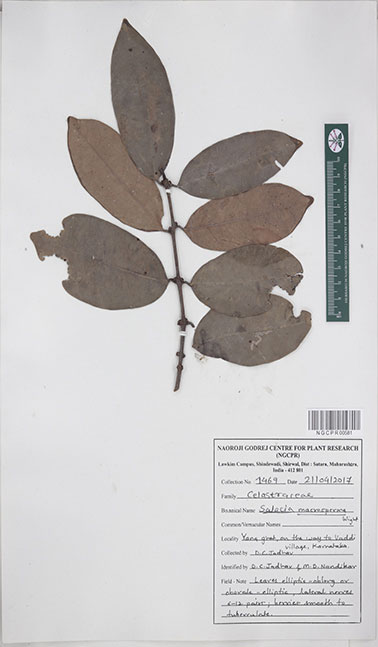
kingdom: Plantae
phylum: Tracheophyta
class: Magnoliopsida
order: Celastrales
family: Celastraceae
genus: Salacia
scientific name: Salacia macrosperma
